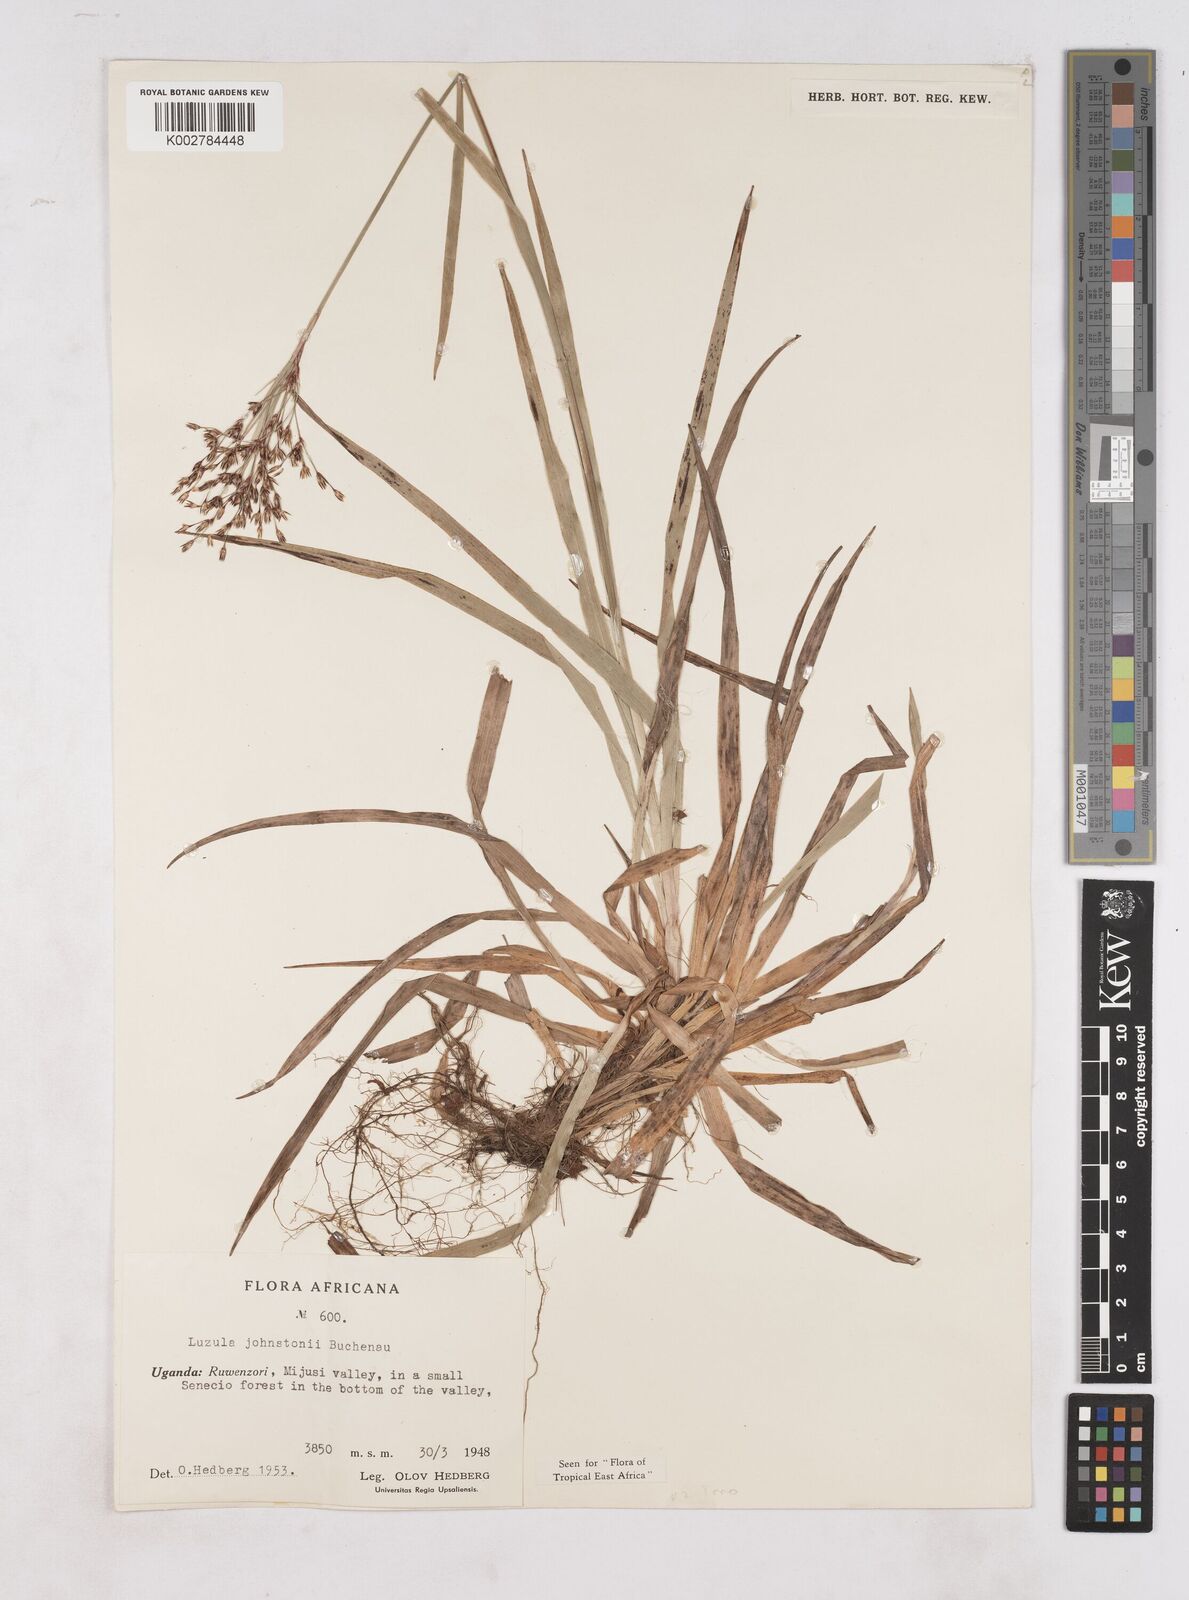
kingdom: Plantae
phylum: Tracheophyta
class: Liliopsida
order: Poales
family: Juncaceae
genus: Luzula
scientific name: Luzula johnstonii
